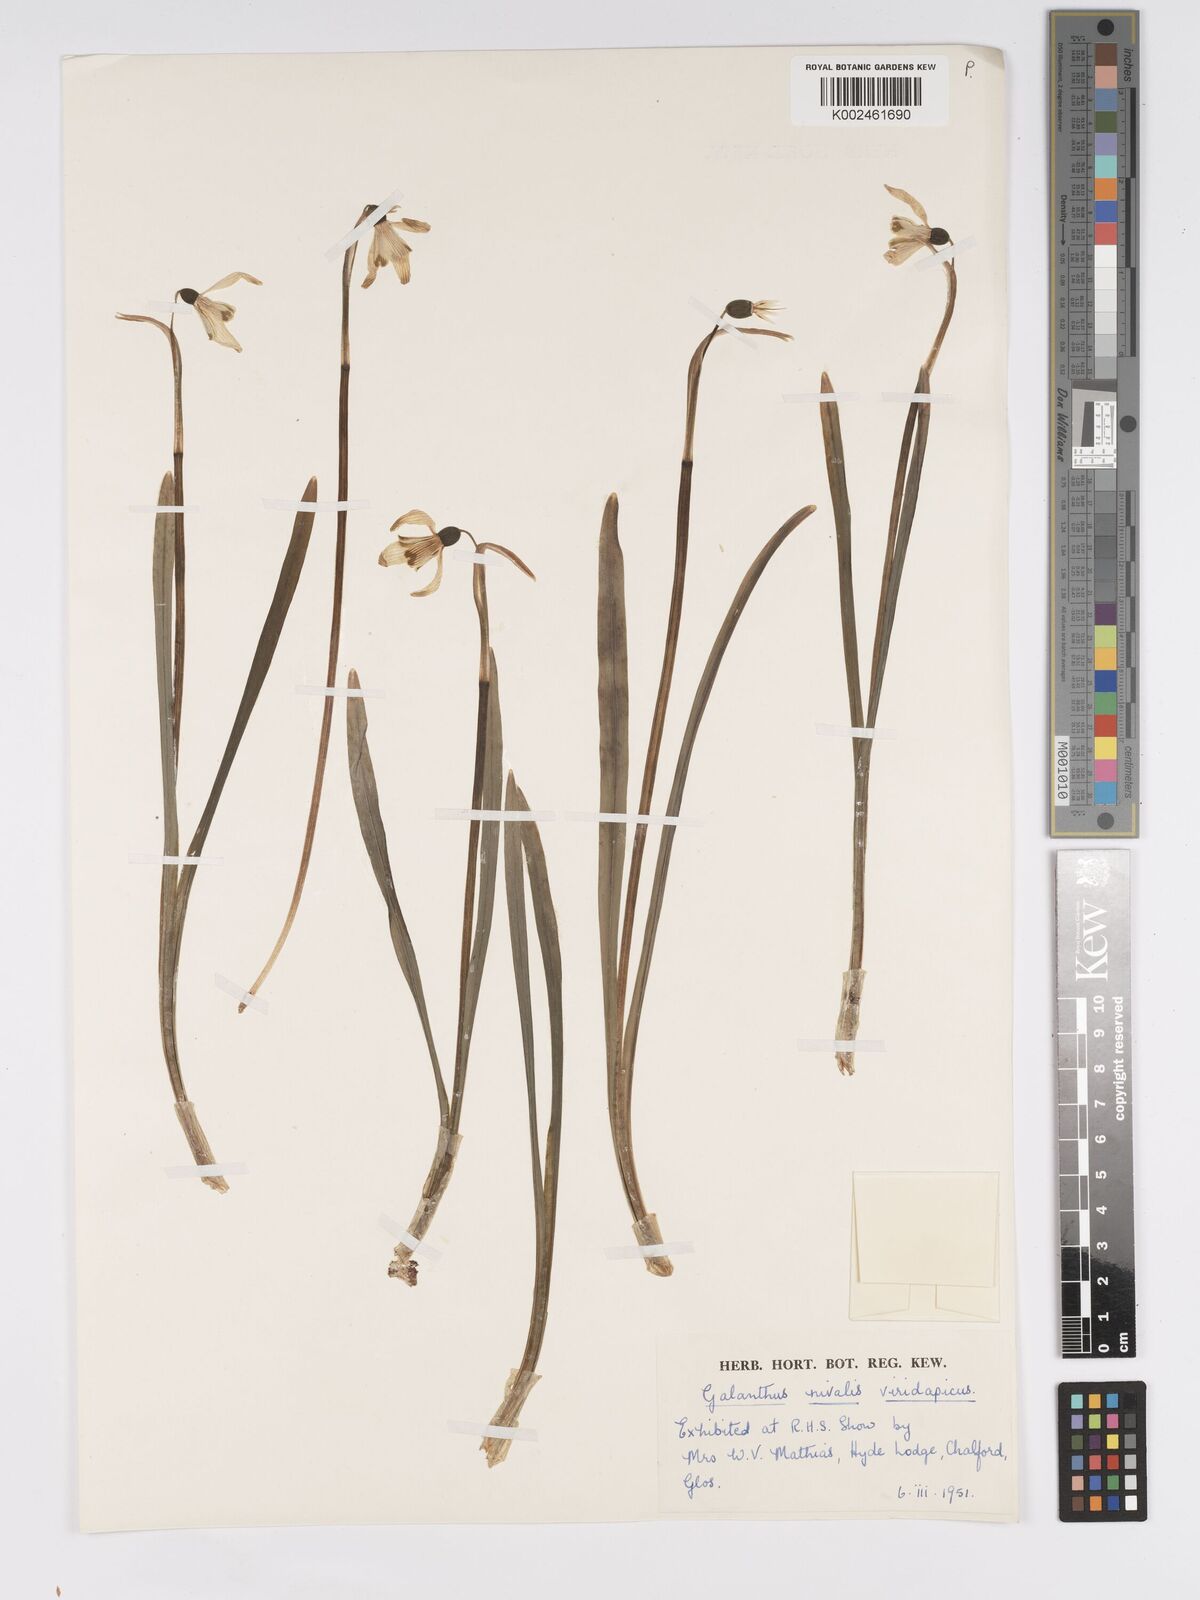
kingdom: Plantae
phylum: Tracheophyta
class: Liliopsida
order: Asparagales
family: Amaryllidaceae
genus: Galanthus
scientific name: Galanthus
